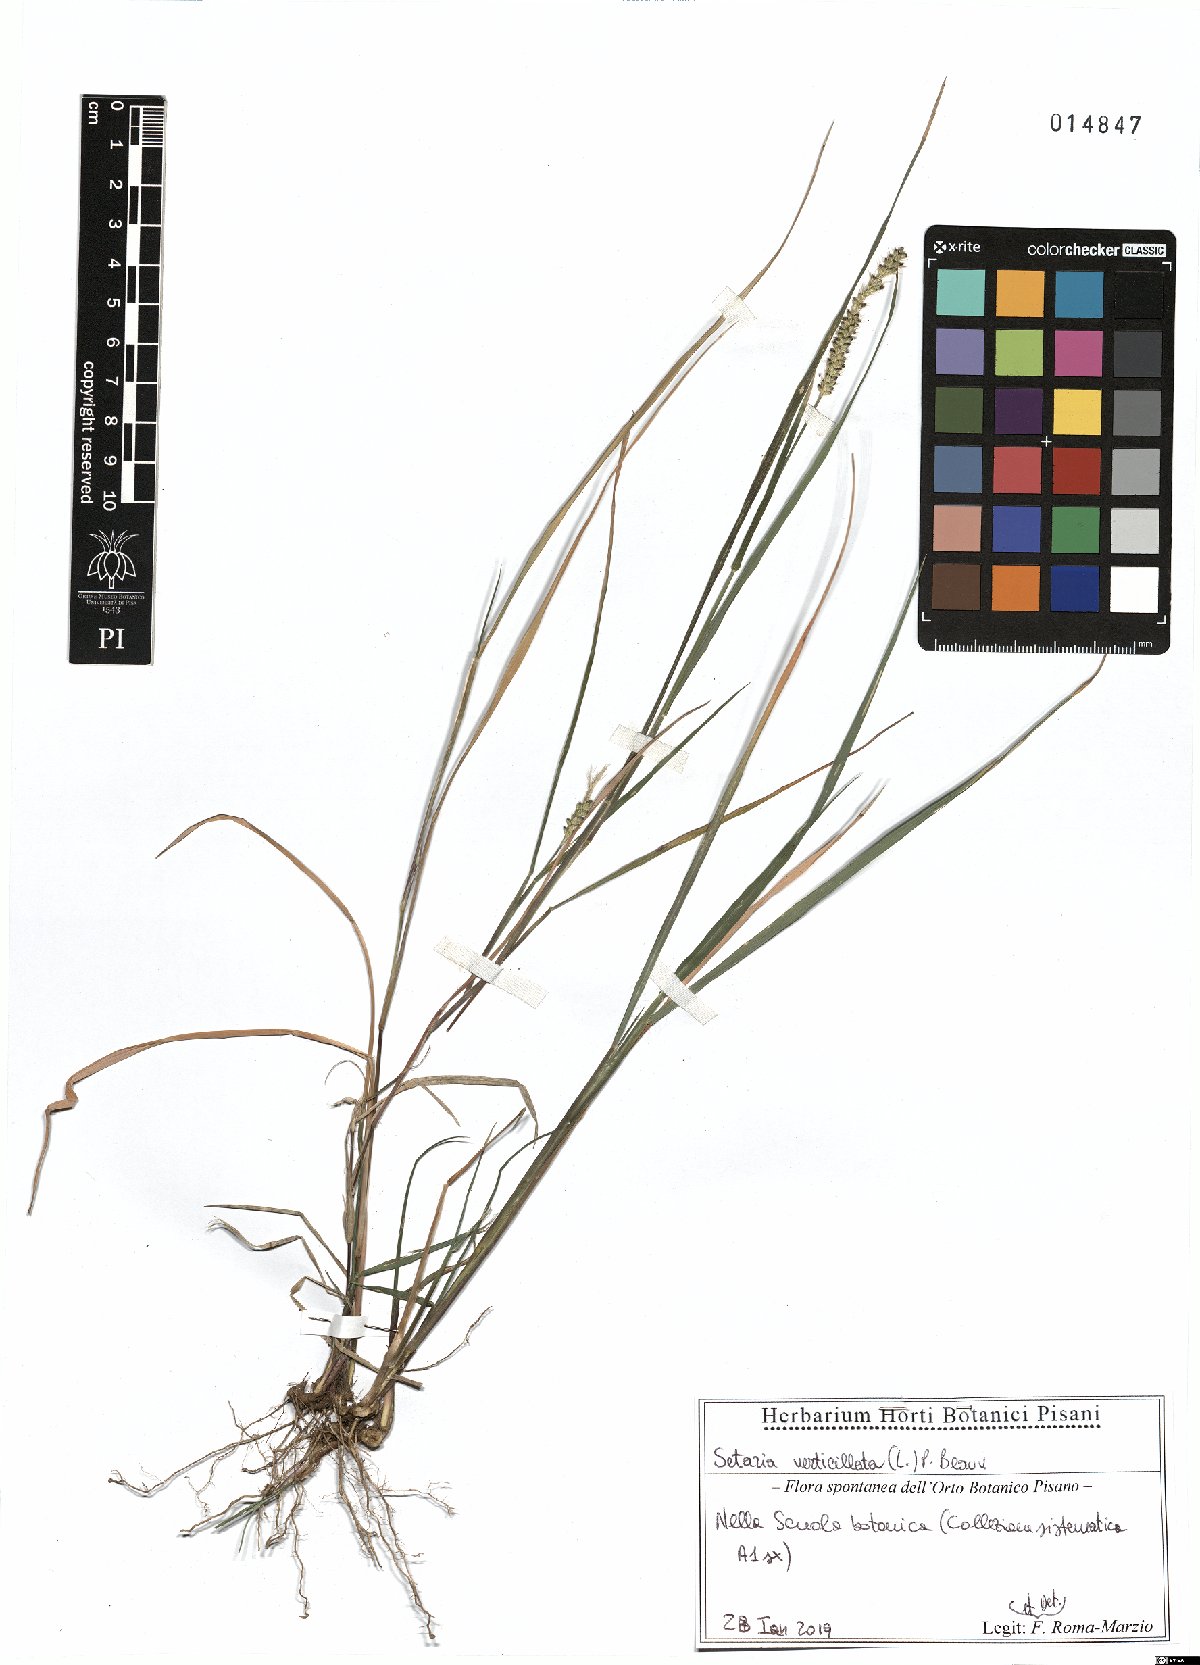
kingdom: Plantae
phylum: Tracheophyta
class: Liliopsida
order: Poales
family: Poaceae
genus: Setaria
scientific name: Setaria verticillata
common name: Hooked bristlegrass
